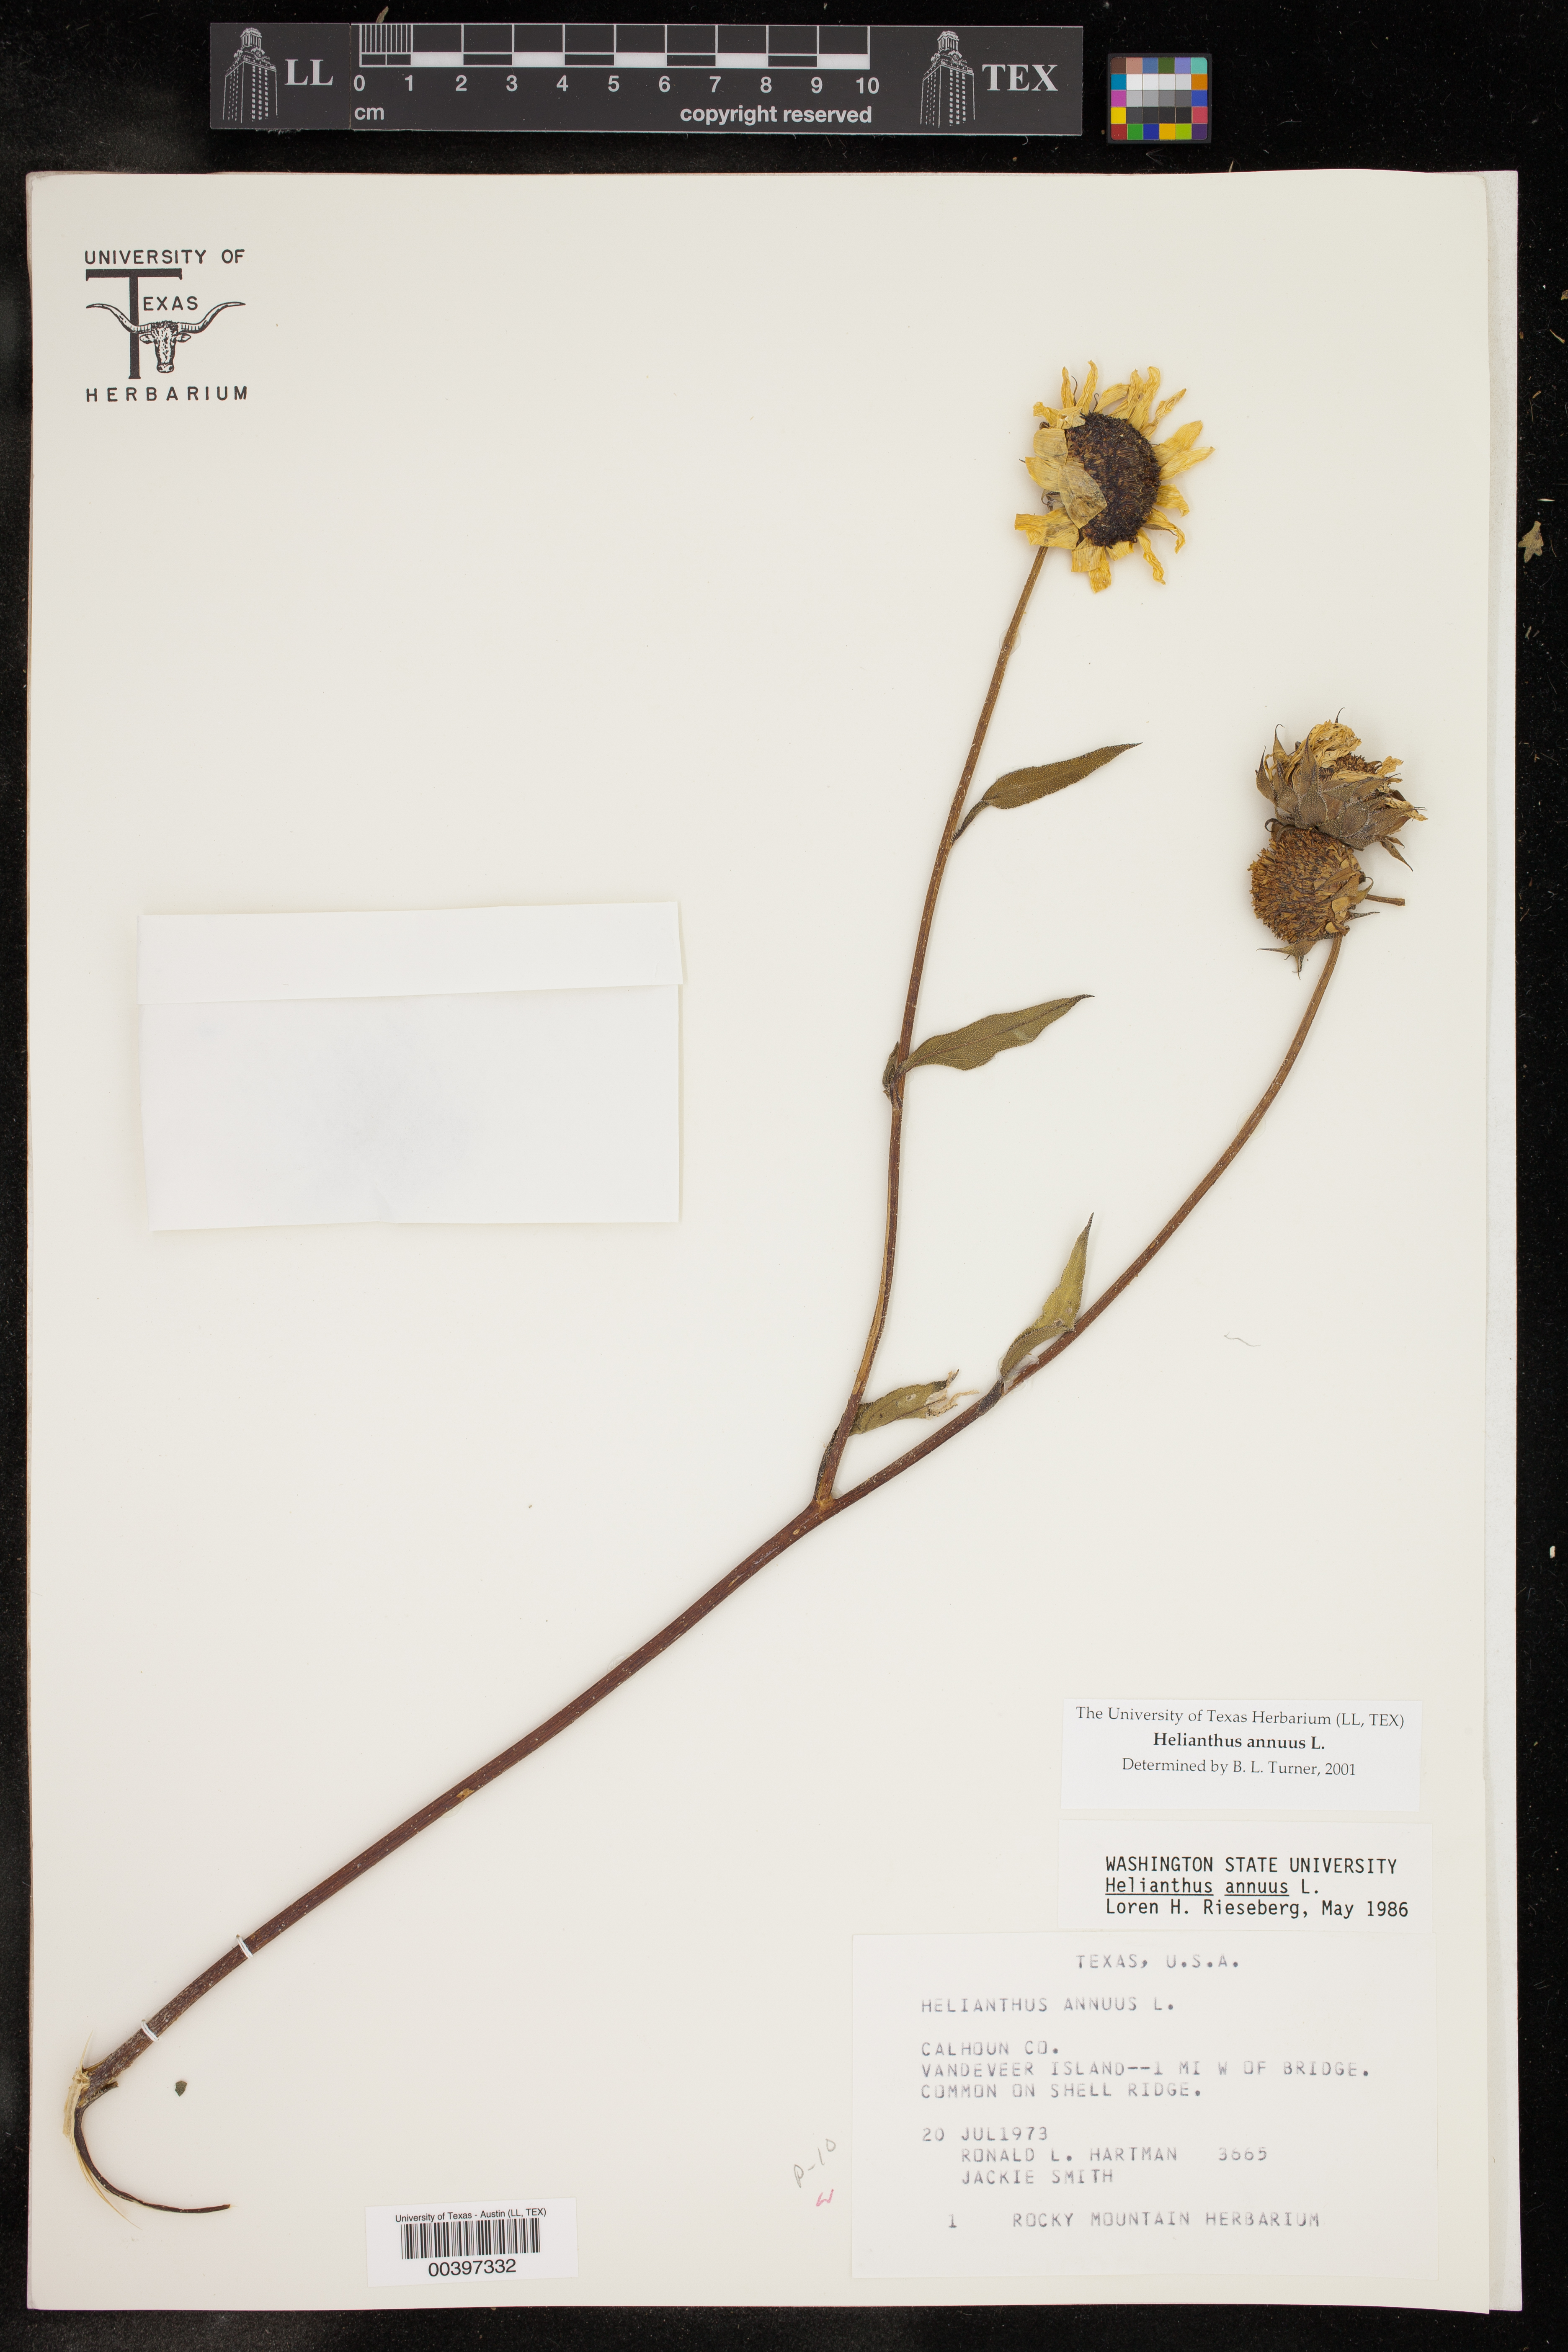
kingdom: Plantae
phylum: Tracheophyta
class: Magnoliopsida
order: Asterales
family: Asteraceae
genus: Helianthus
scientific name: Helianthus annuus
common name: Sunflower
